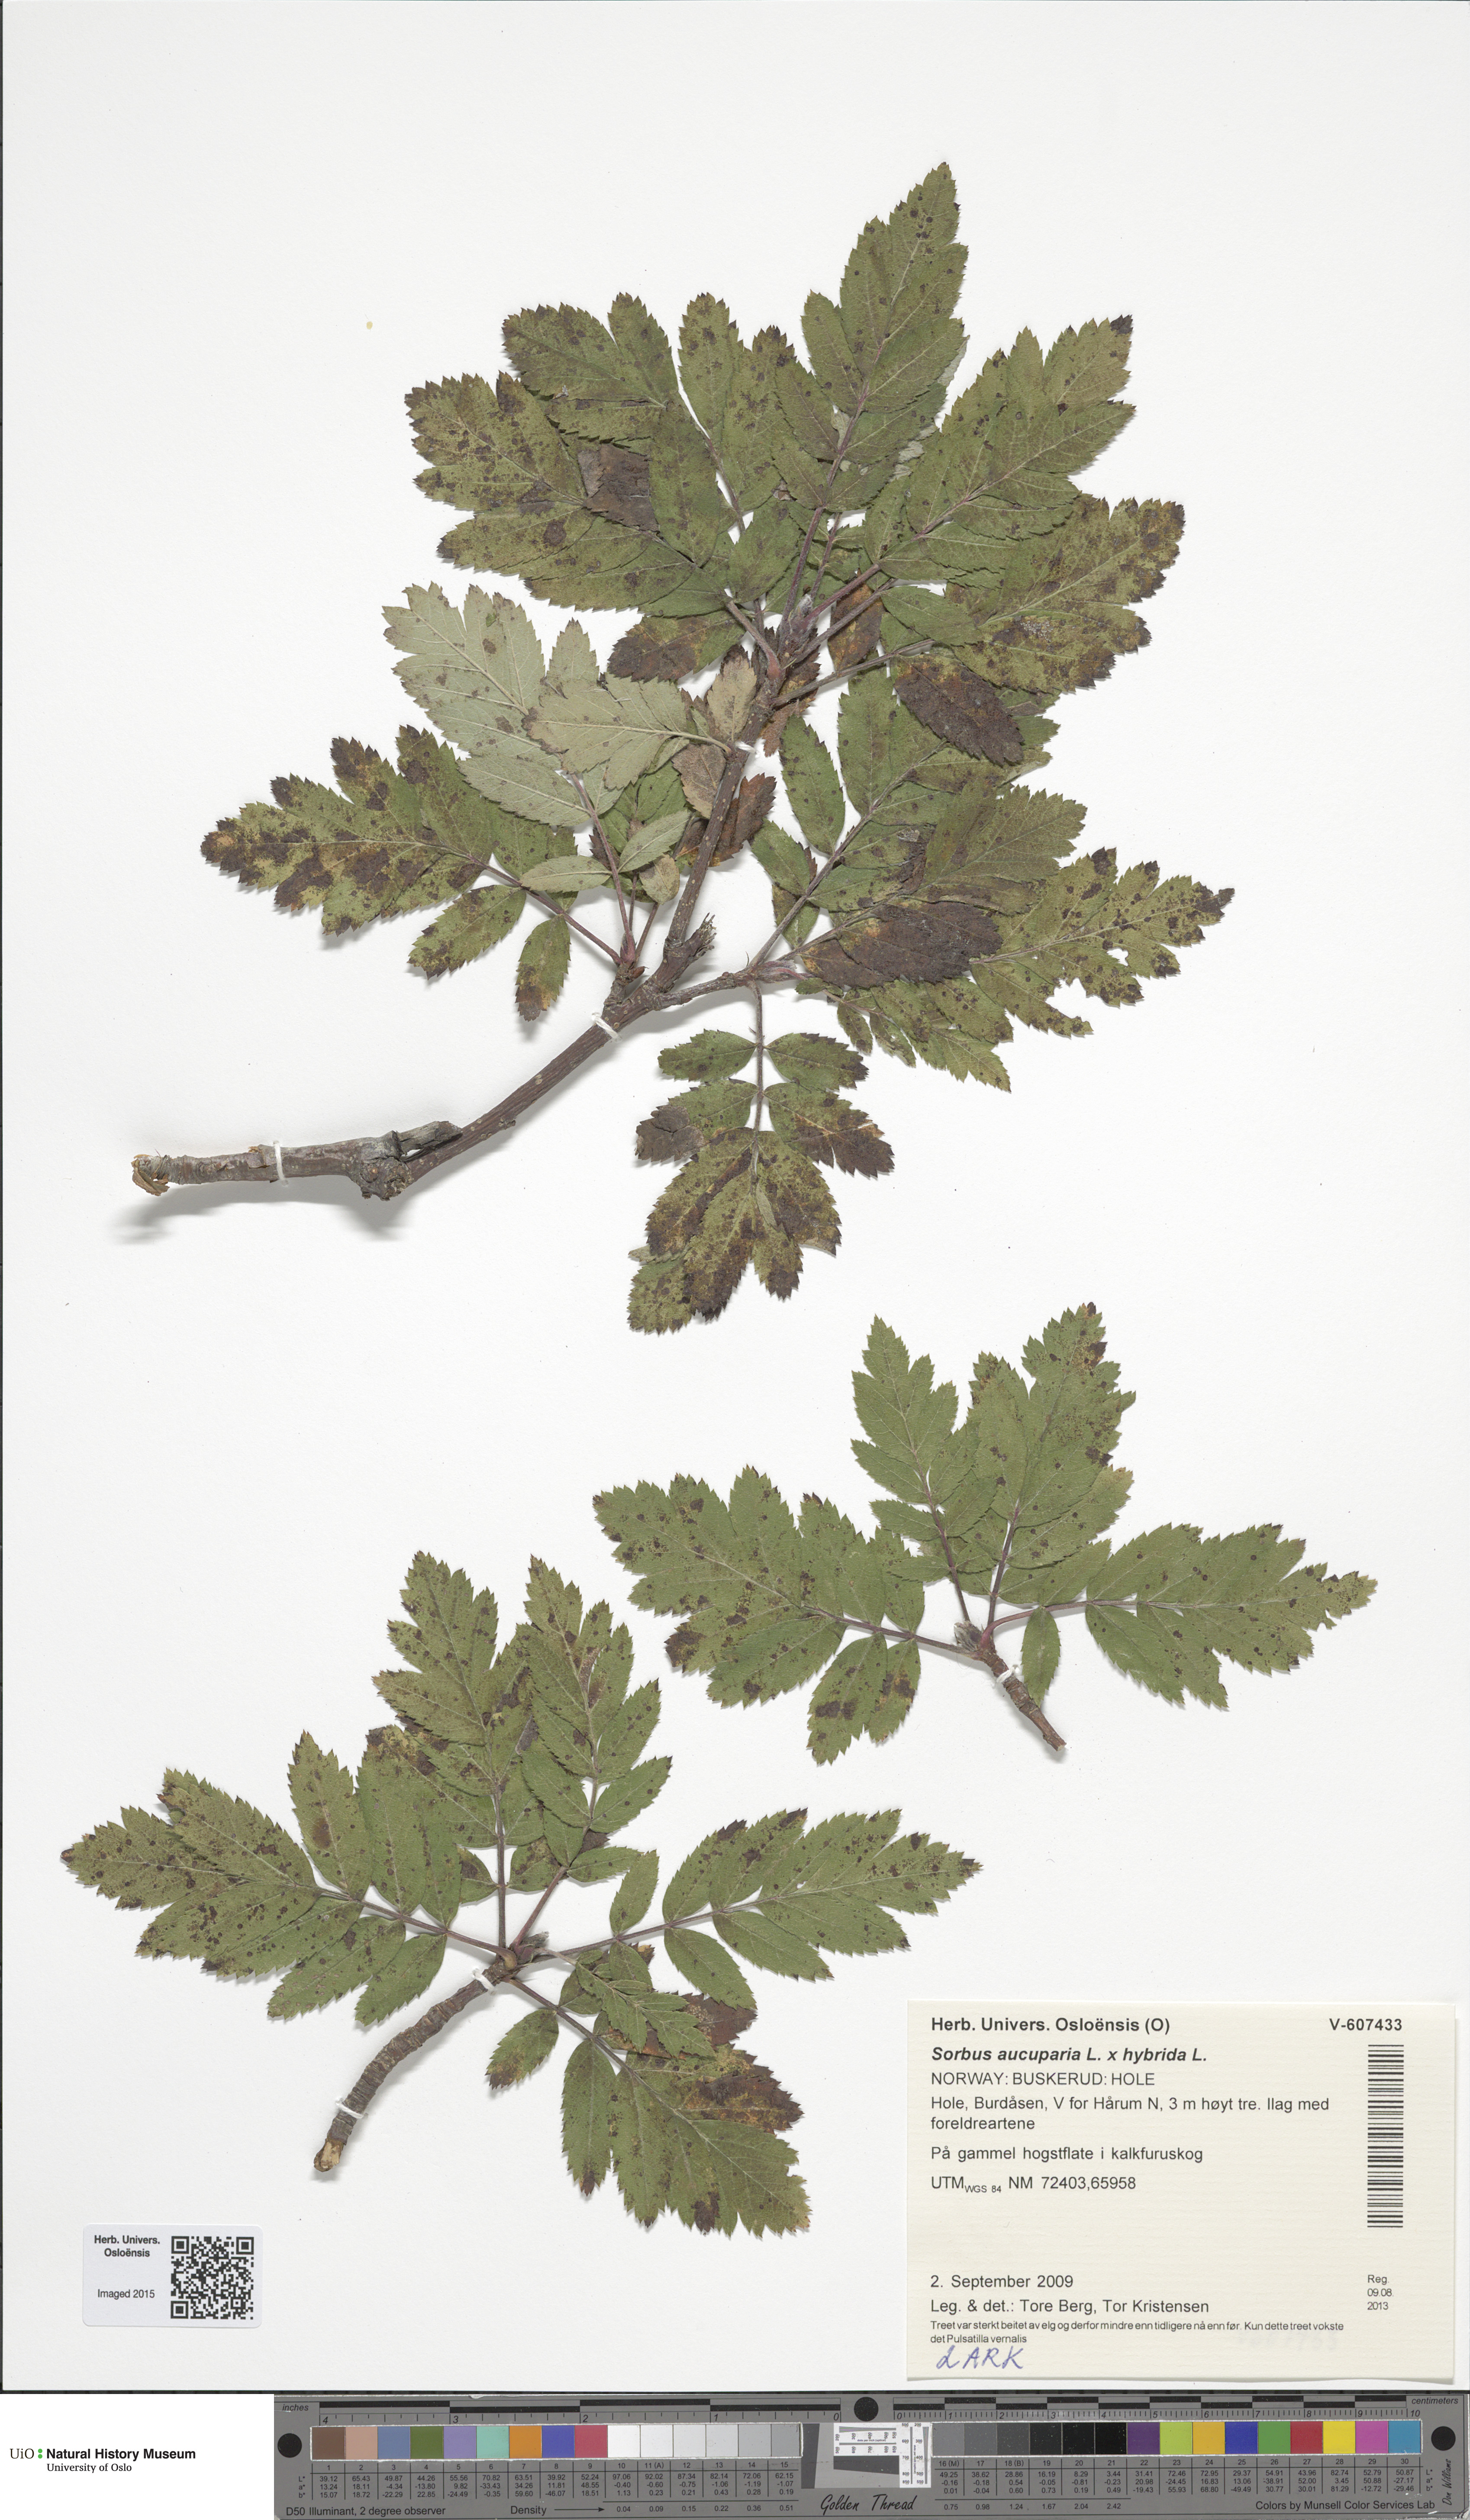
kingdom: Plantae
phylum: Tracheophyta
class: Magnoliopsida
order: Rosales
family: Rosaceae
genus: Hedlundia
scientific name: Hedlundia
